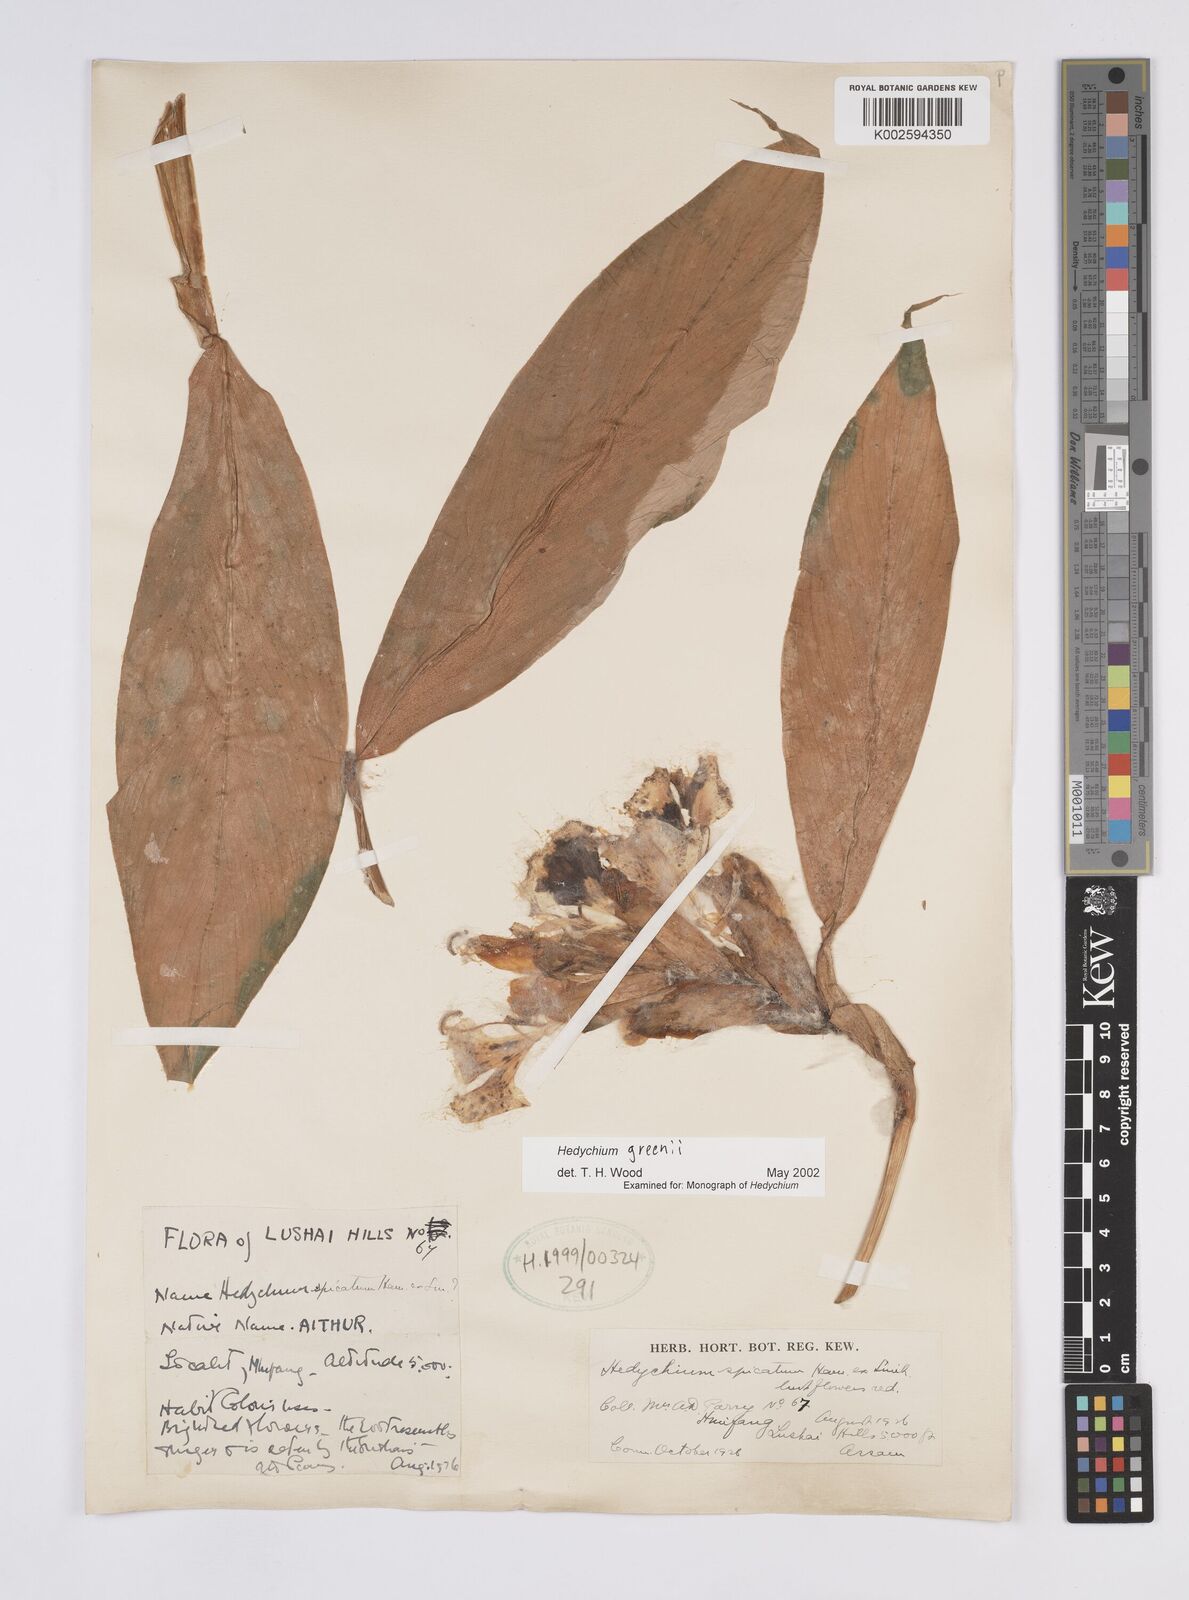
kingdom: Plantae
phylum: Tracheophyta
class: Liliopsida
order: Zingiberales
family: Zingiberaceae
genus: Hedychium
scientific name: Hedychium greenii
